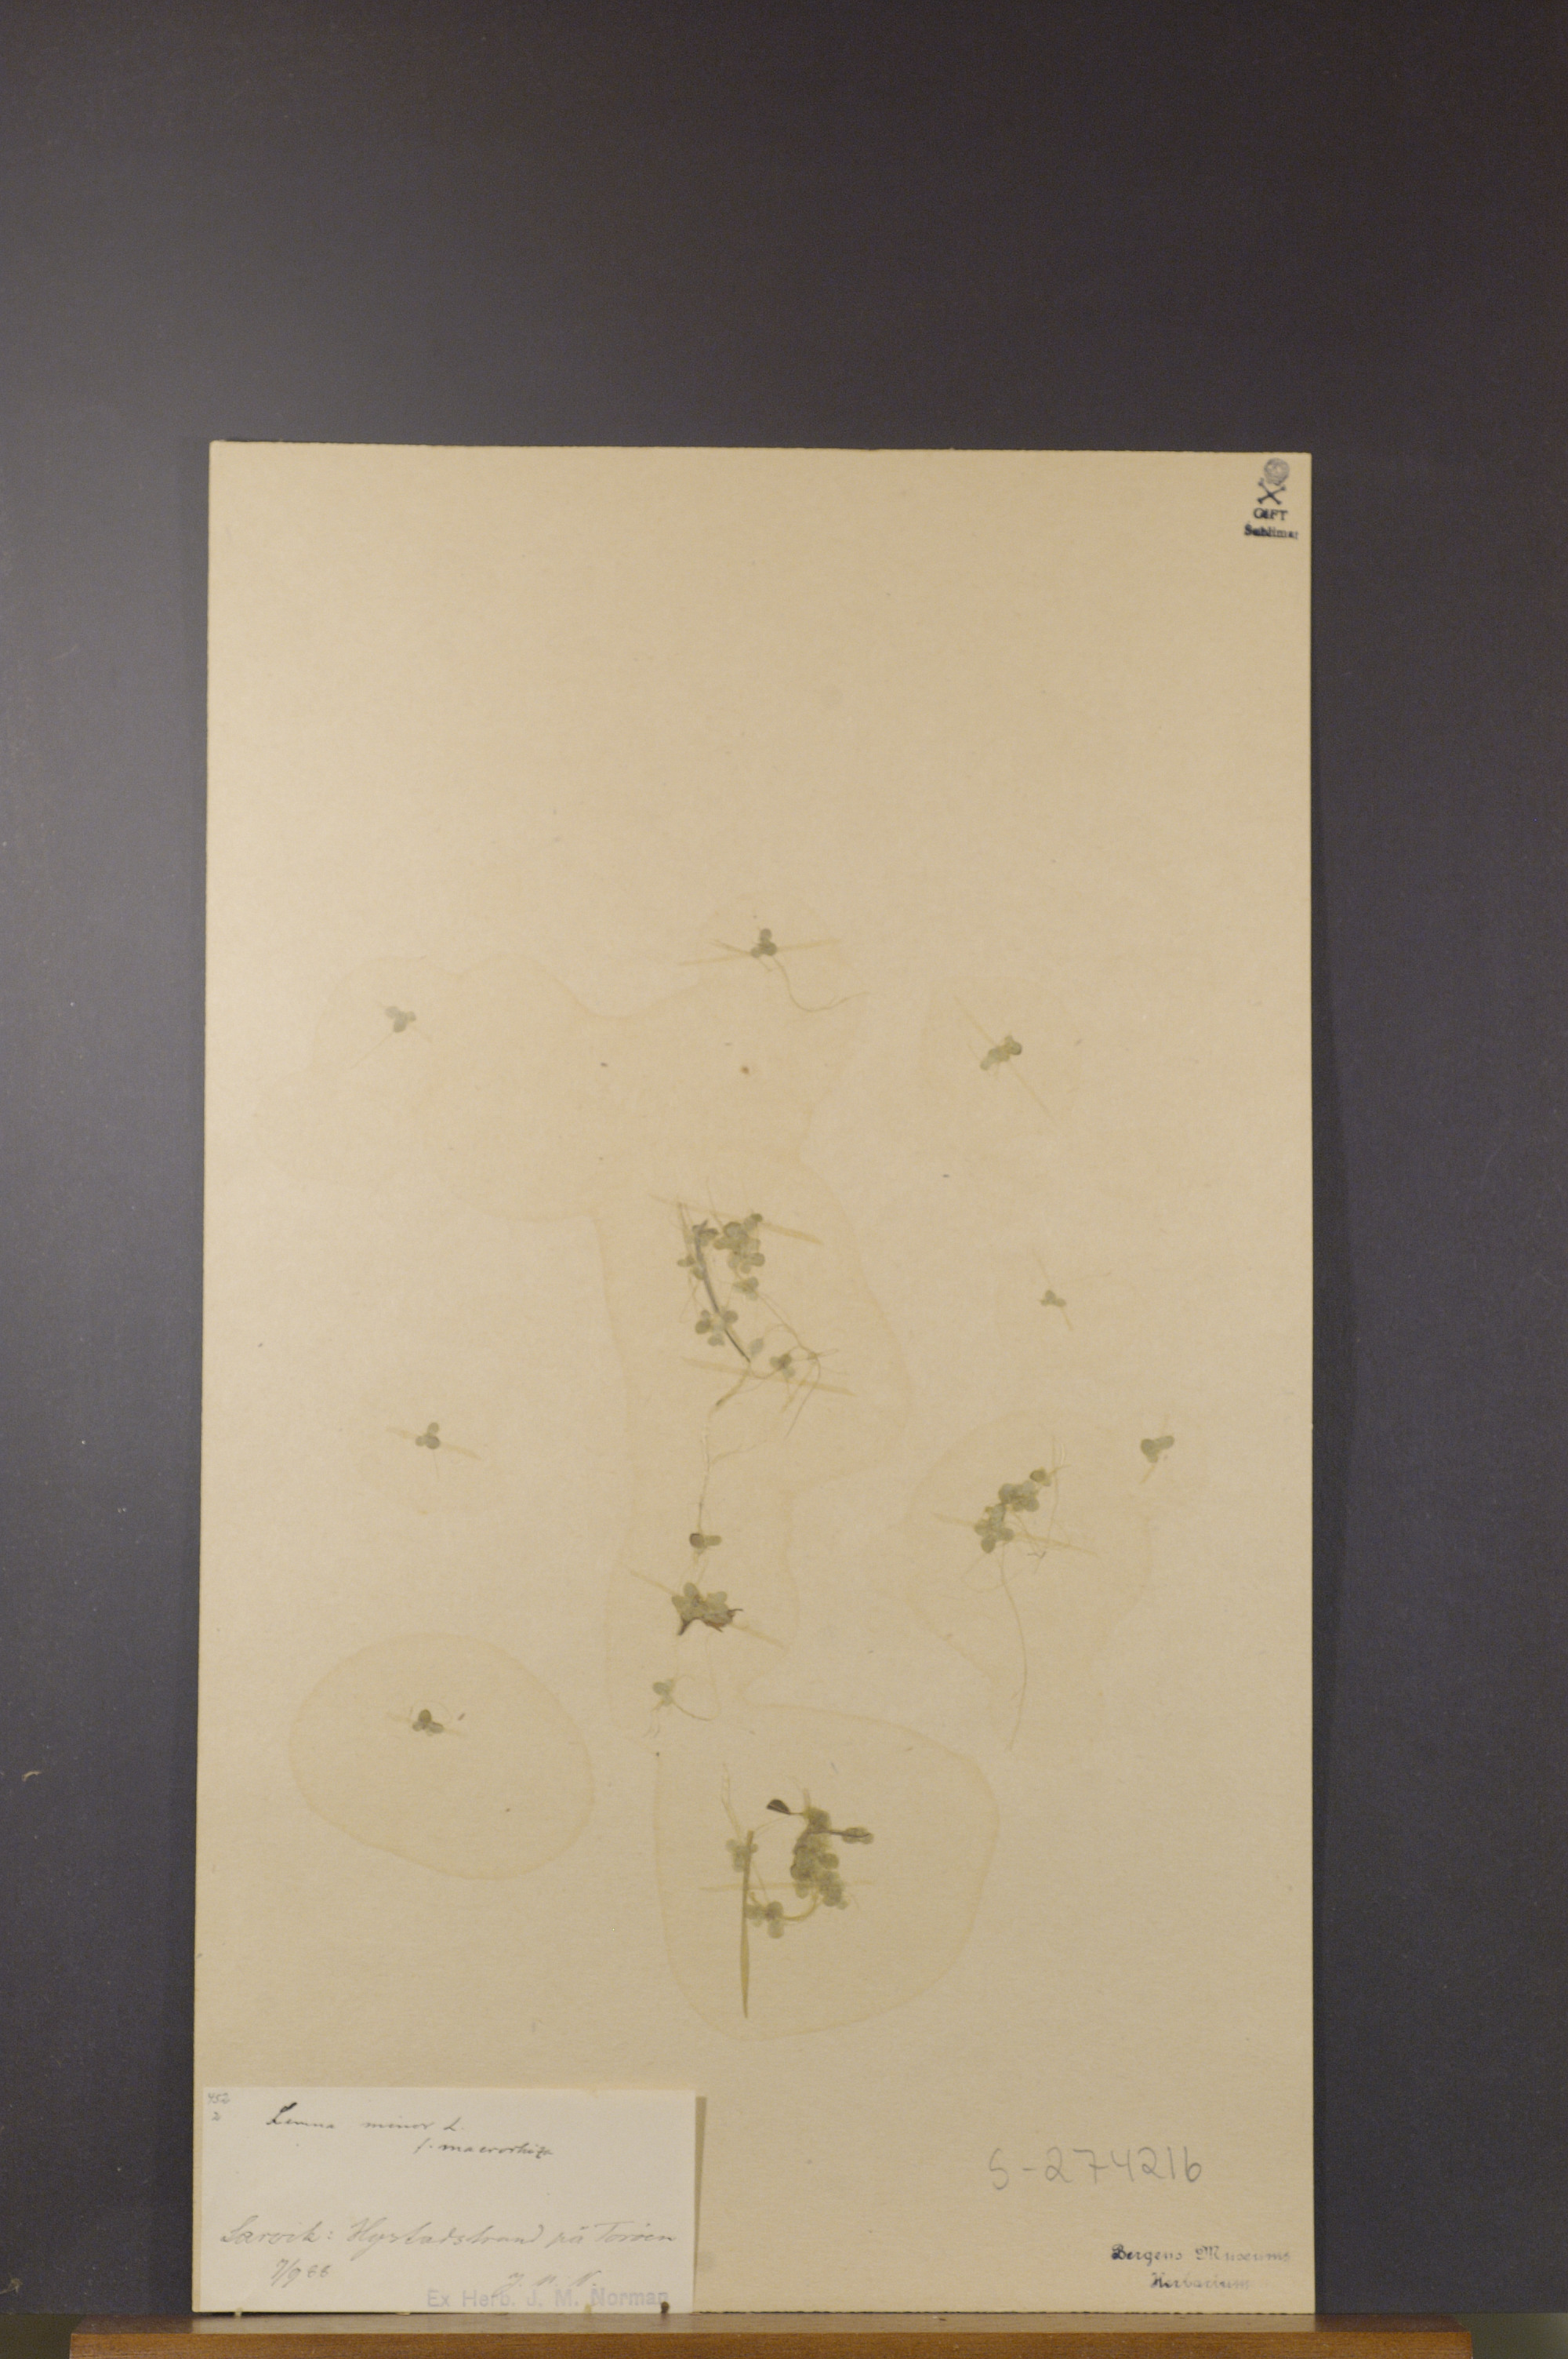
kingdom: Plantae
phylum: Tracheophyta
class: Liliopsida
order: Alismatales
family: Araceae
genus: Lemna
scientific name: Lemna minor
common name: Common duckweed
